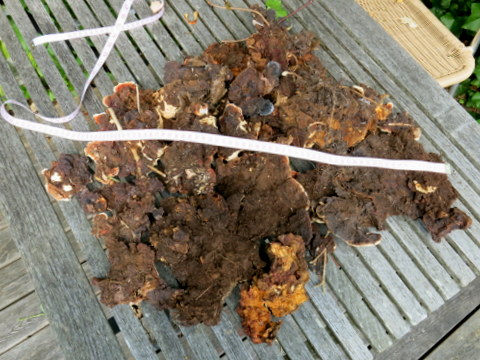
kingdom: Fungi
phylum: Basidiomycota
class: Agaricomycetes
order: Russulales
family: Bondarzewiaceae
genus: Heterobasidion
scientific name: Heterobasidion annosum
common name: almindelig rodfordærver
